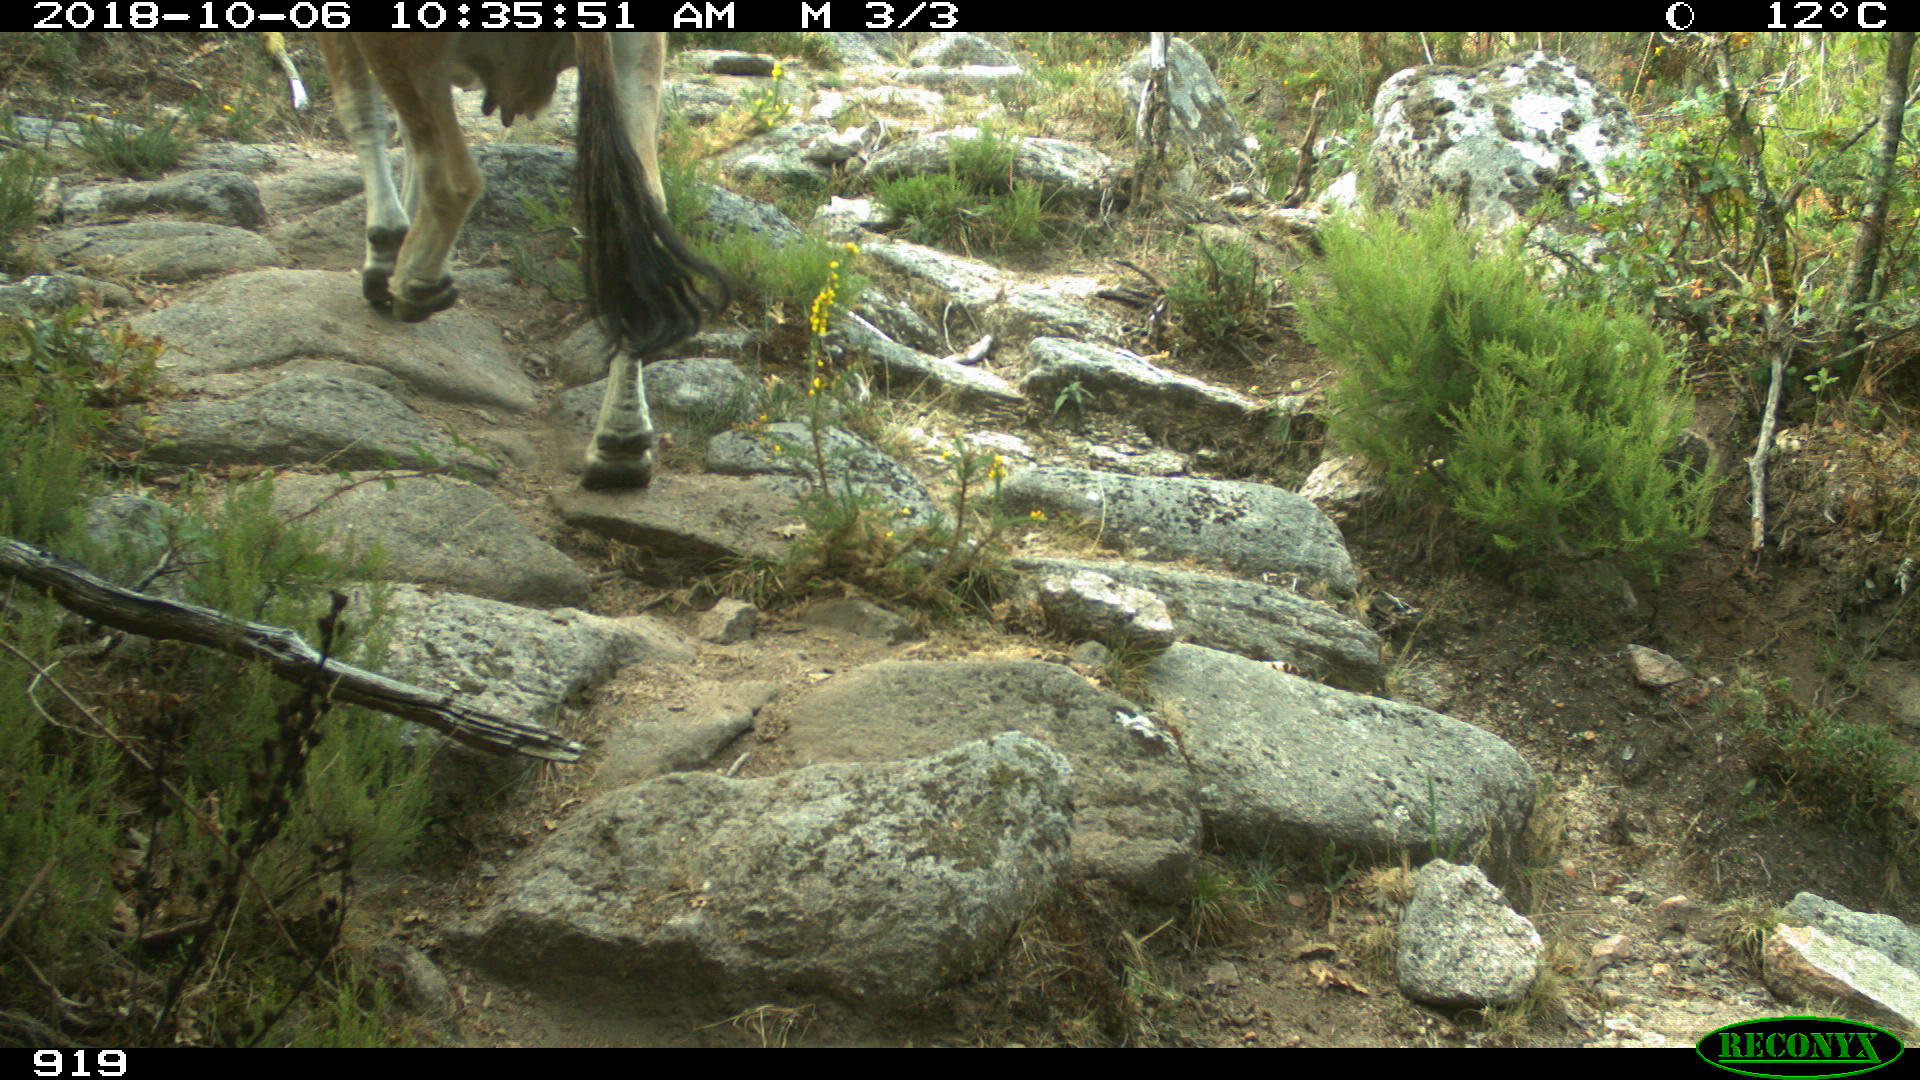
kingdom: Animalia
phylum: Chordata
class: Mammalia
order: Artiodactyla
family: Bovidae
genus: Bos
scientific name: Bos taurus
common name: Domesticated cattle
